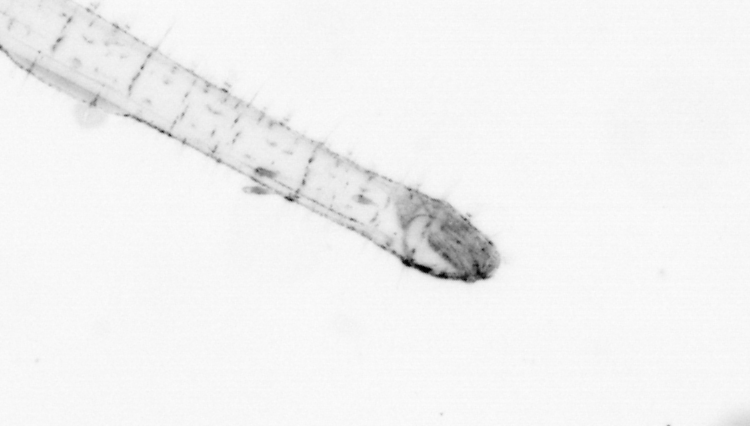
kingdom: Animalia
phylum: Chaetognatha
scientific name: Chaetognatha
